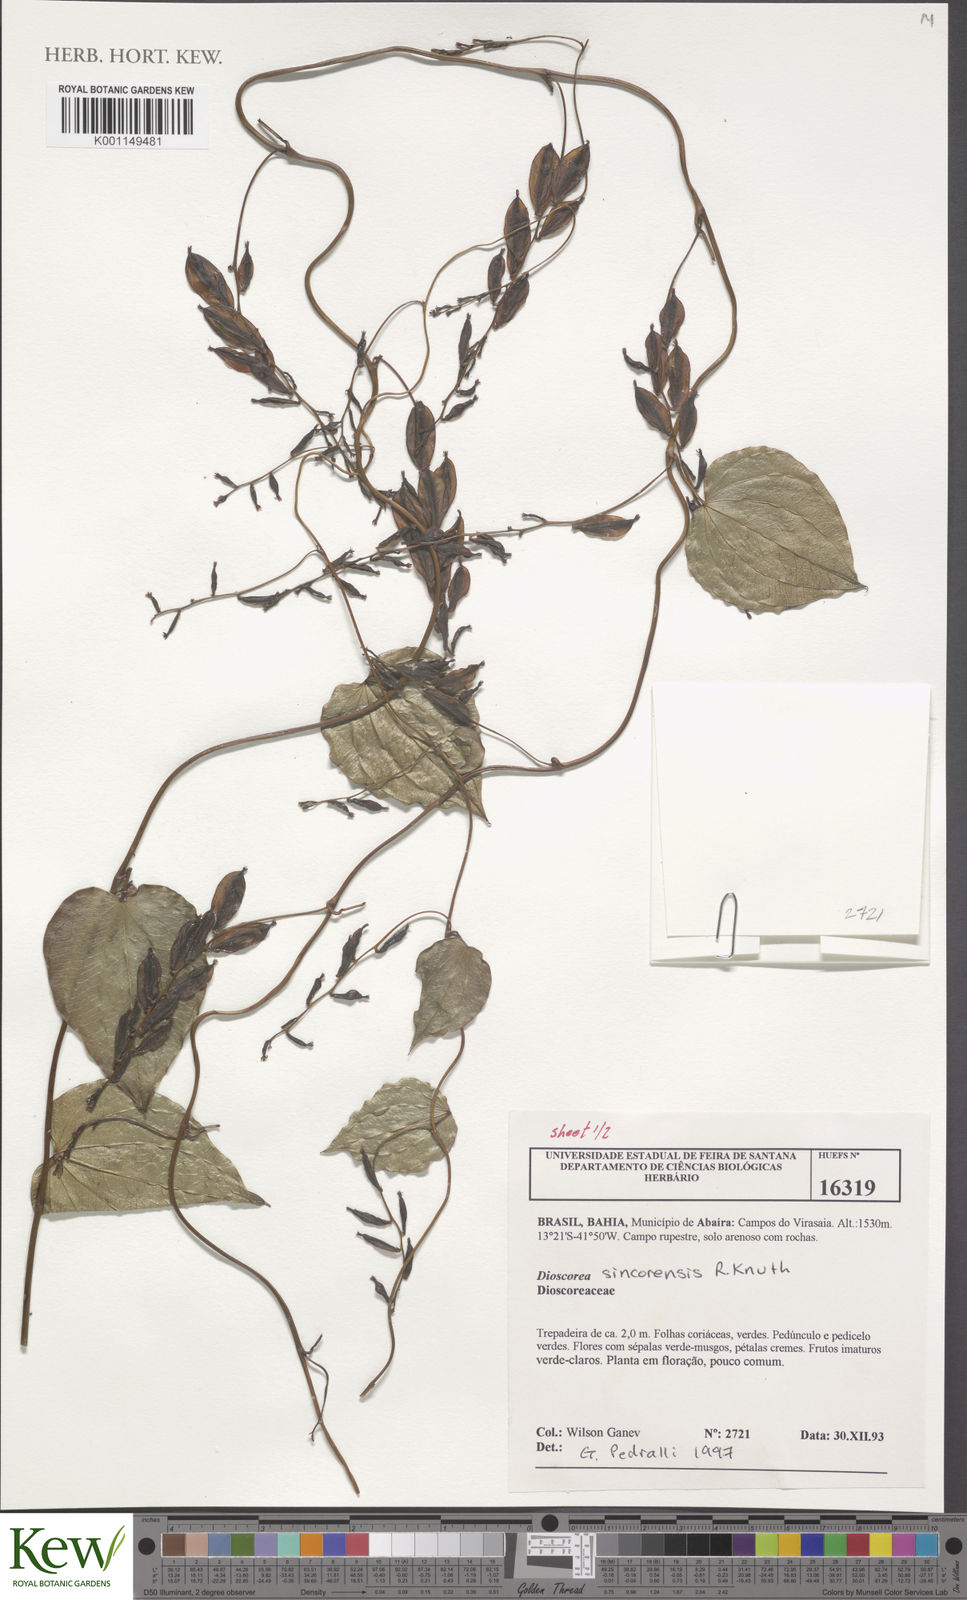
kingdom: Plantae
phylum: Tracheophyta
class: Liliopsida
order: Dioscoreales
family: Dioscoreaceae
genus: Dioscorea
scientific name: Dioscorea sincorensis
